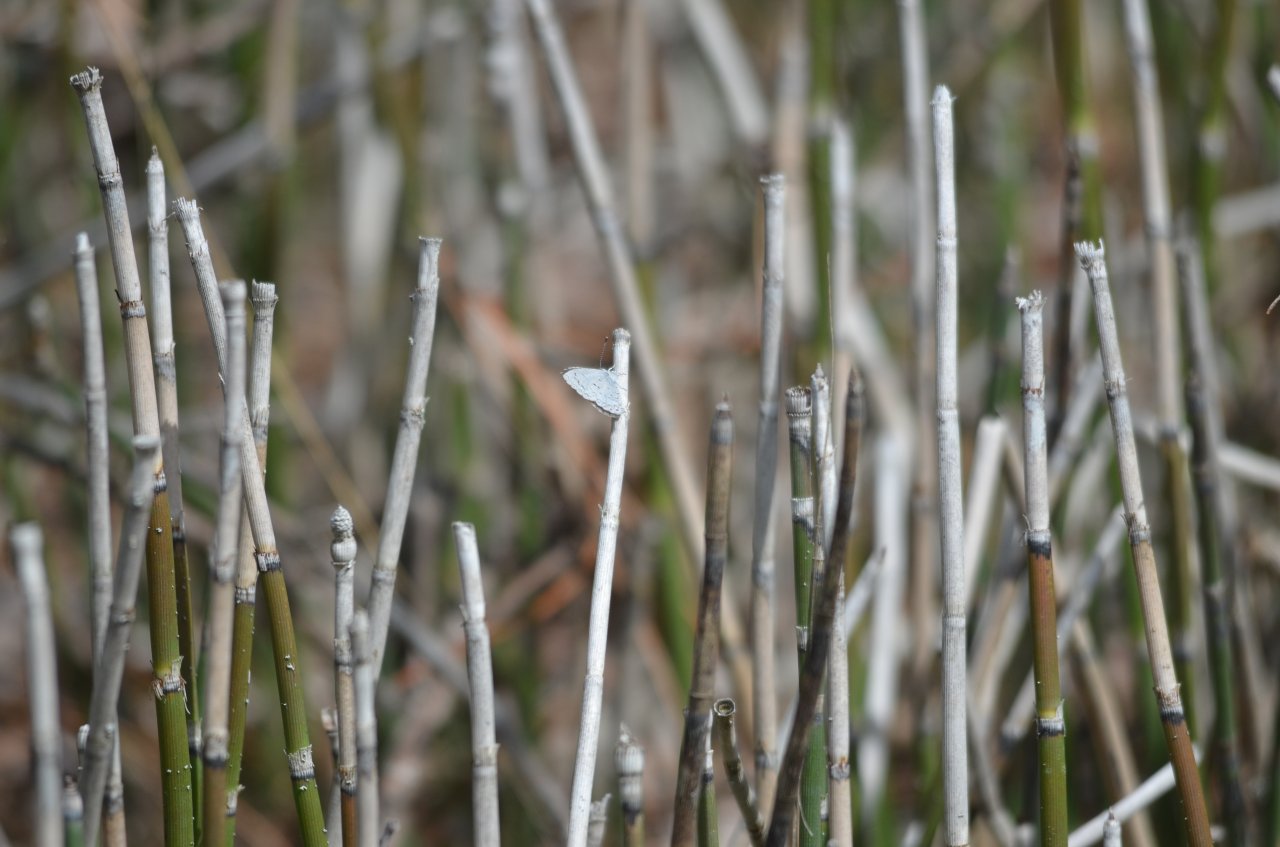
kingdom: Animalia
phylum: Arthropoda
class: Insecta
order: Lepidoptera
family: Lycaenidae
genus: Celastrina
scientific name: Celastrina
